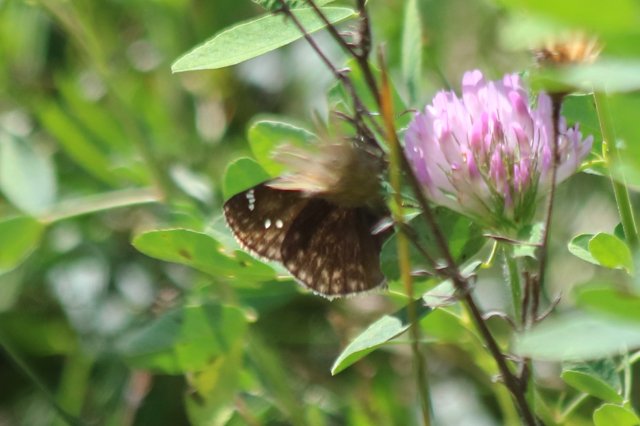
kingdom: Animalia
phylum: Arthropoda
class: Insecta
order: Lepidoptera
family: Hesperiidae
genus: Gesta
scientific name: Gesta
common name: Wild Indigo Duskywing
